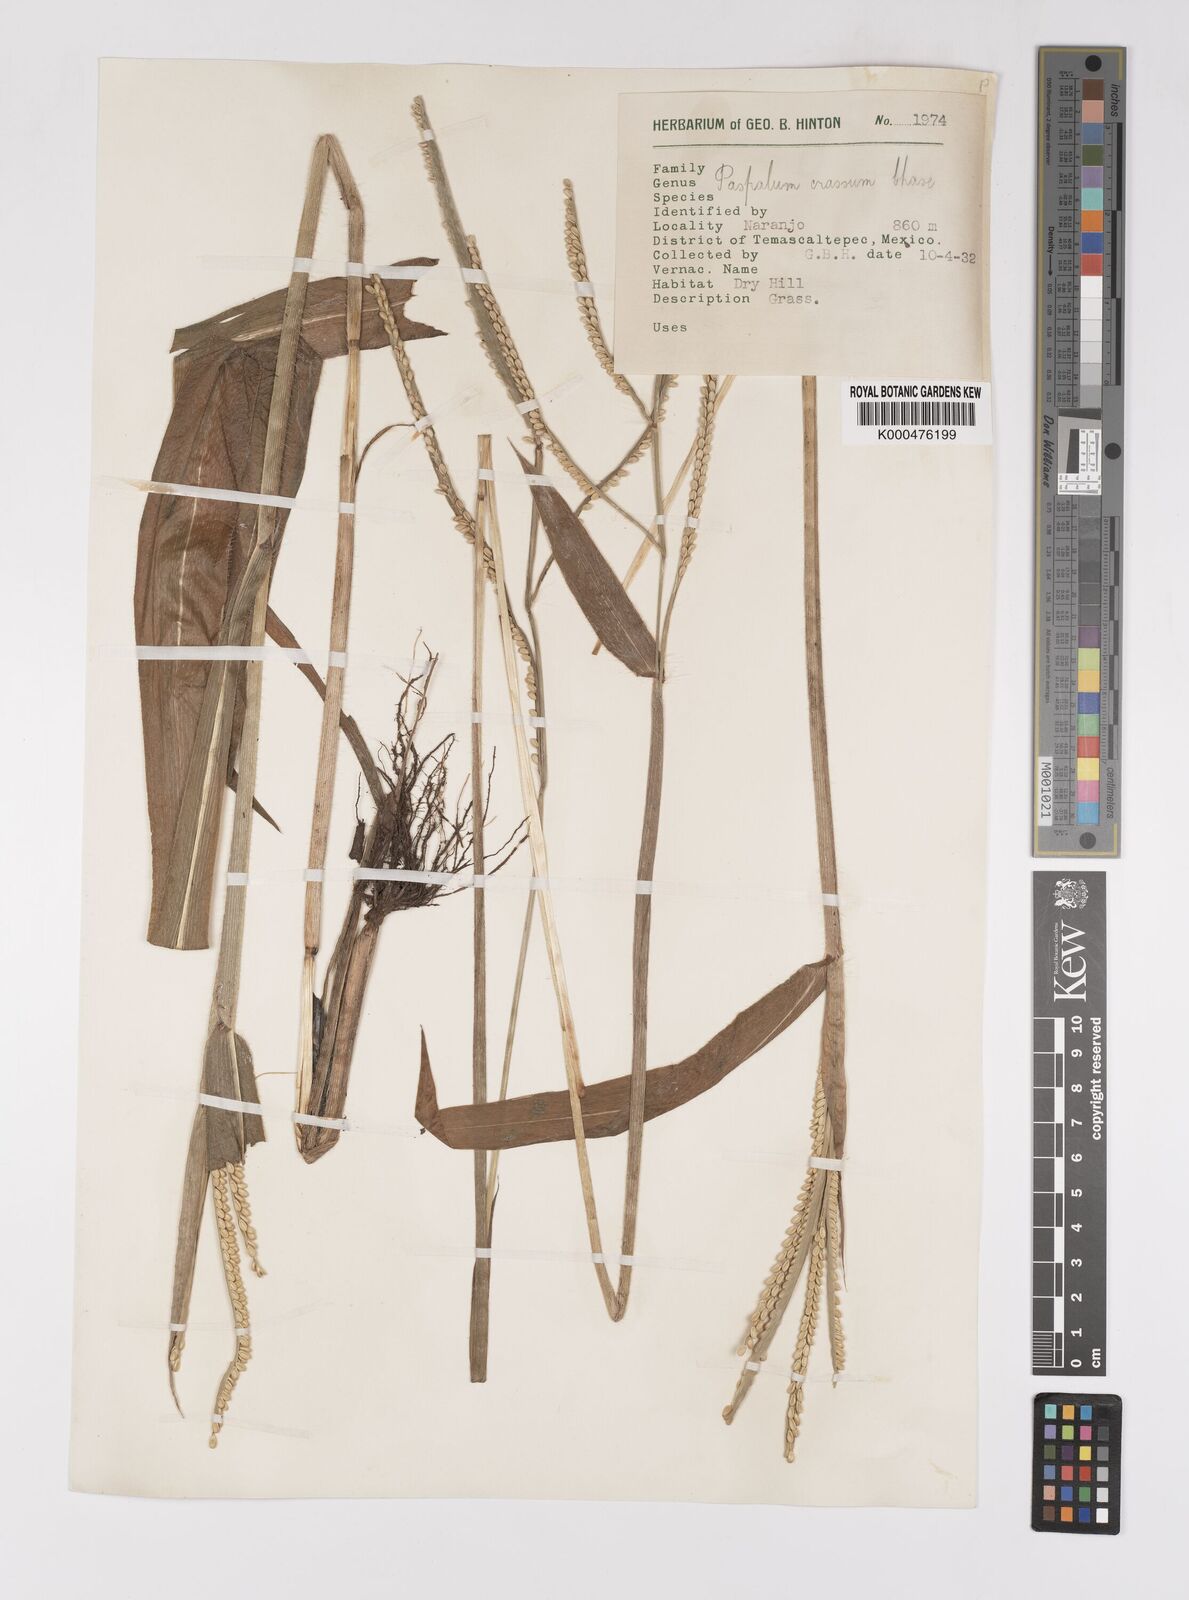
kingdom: Plantae
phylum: Tracheophyta
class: Liliopsida
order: Poales
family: Poaceae
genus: Paspalum
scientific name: Paspalum crassum
